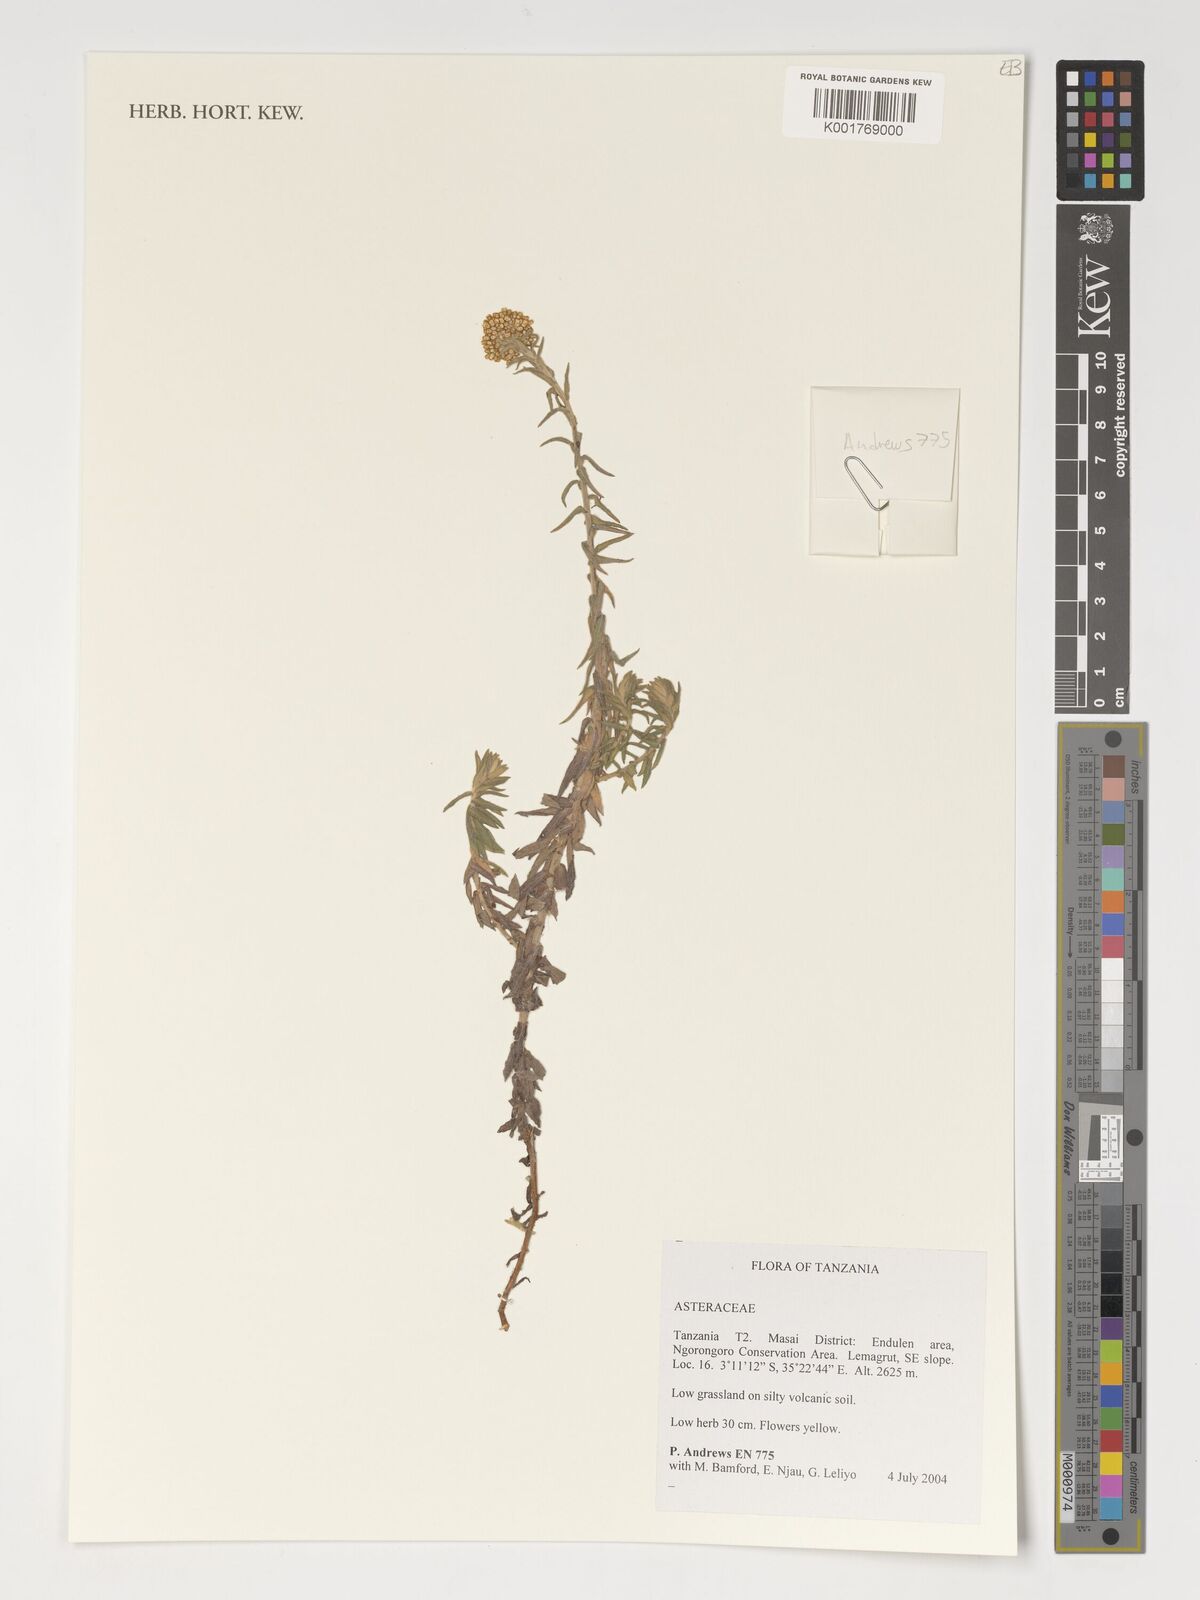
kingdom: Plantae
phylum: Tracheophyta
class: Magnoliopsida
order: Asterales
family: Asteraceae
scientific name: Asteraceae
